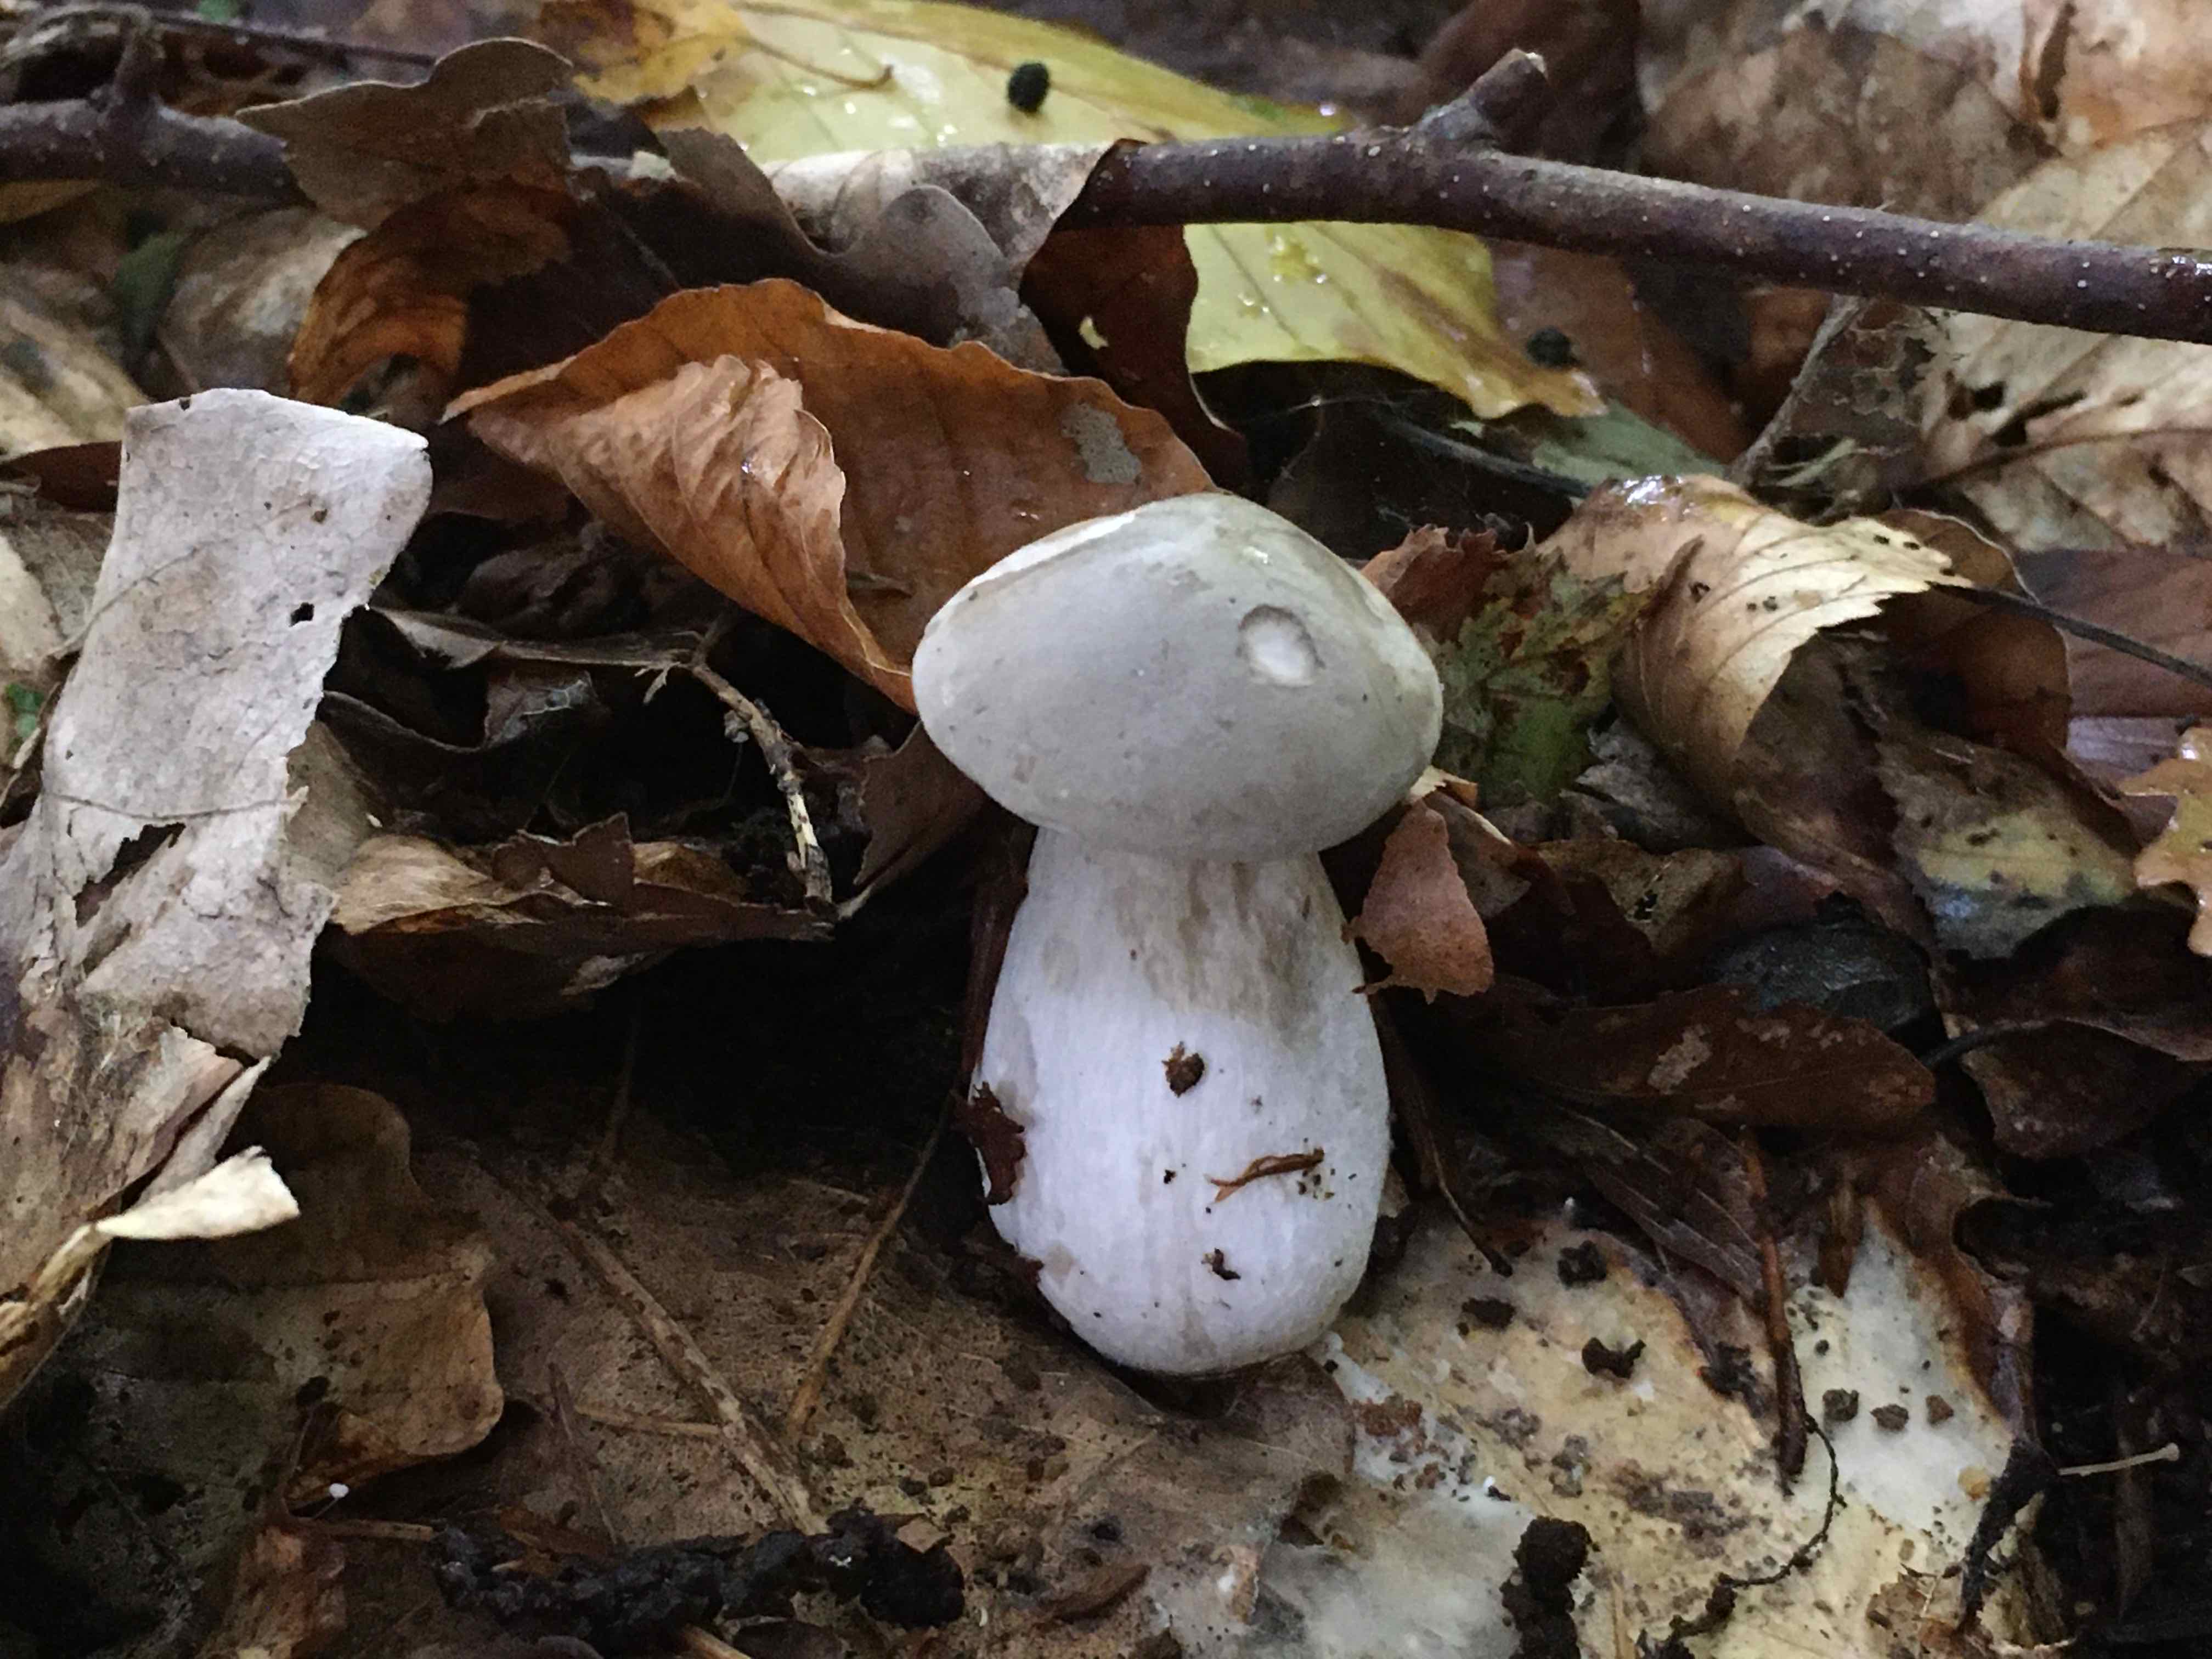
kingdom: Fungi
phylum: Basidiomycota
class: Agaricomycetes
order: Agaricales
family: Tricholomataceae
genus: Clitocybe
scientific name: Clitocybe nebularis
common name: tåge-tragthat
